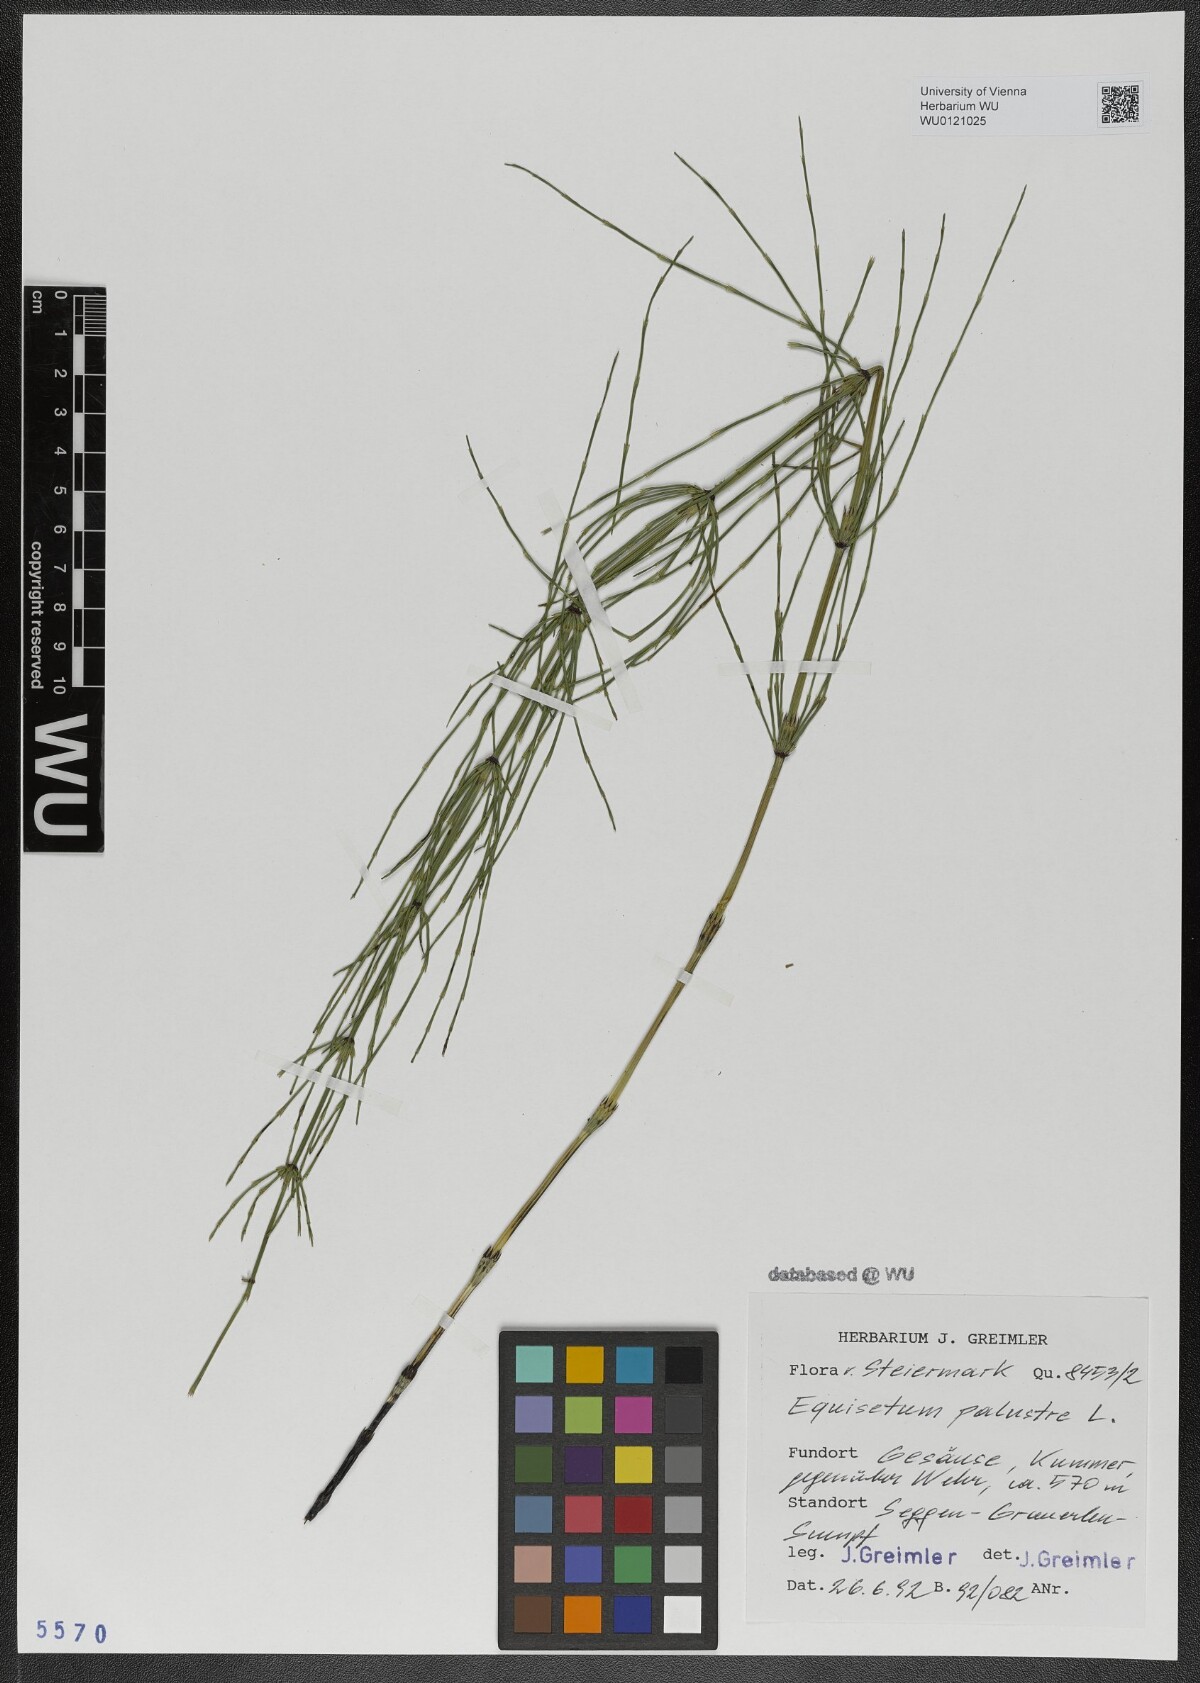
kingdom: Plantae
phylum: Tracheophyta
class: Polypodiopsida
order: Equisetales
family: Equisetaceae
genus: Equisetum
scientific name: Equisetum palustre
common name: Marsh horsetail
